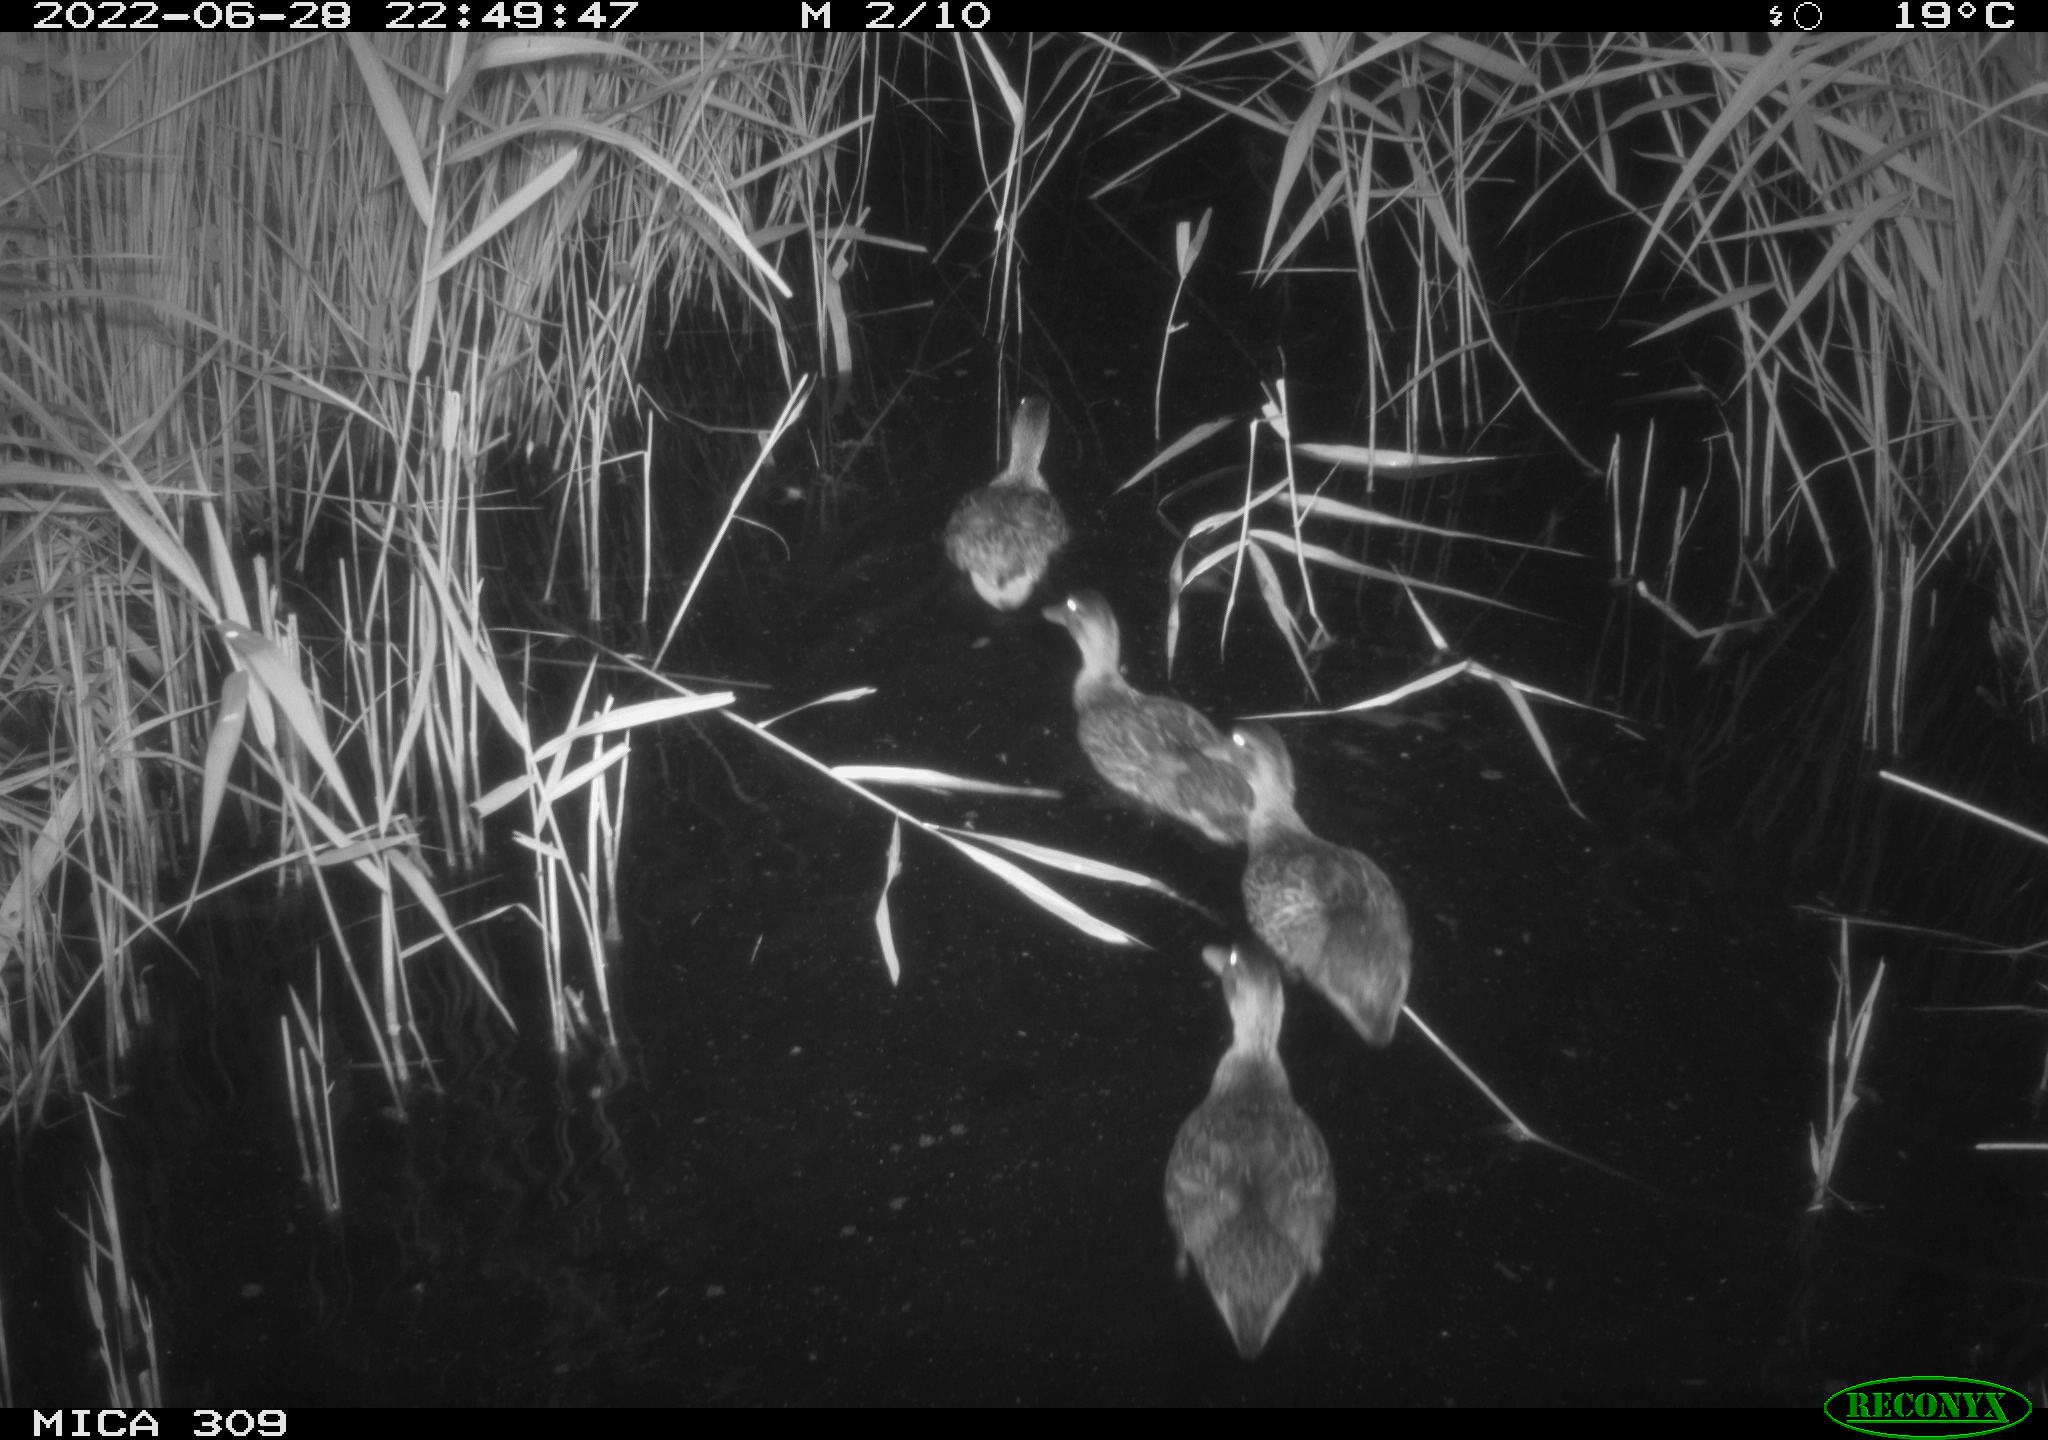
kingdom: Animalia
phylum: Chordata
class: Aves
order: Anseriformes
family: Anatidae
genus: Anas
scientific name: Anas platyrhynchos
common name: Mallard
